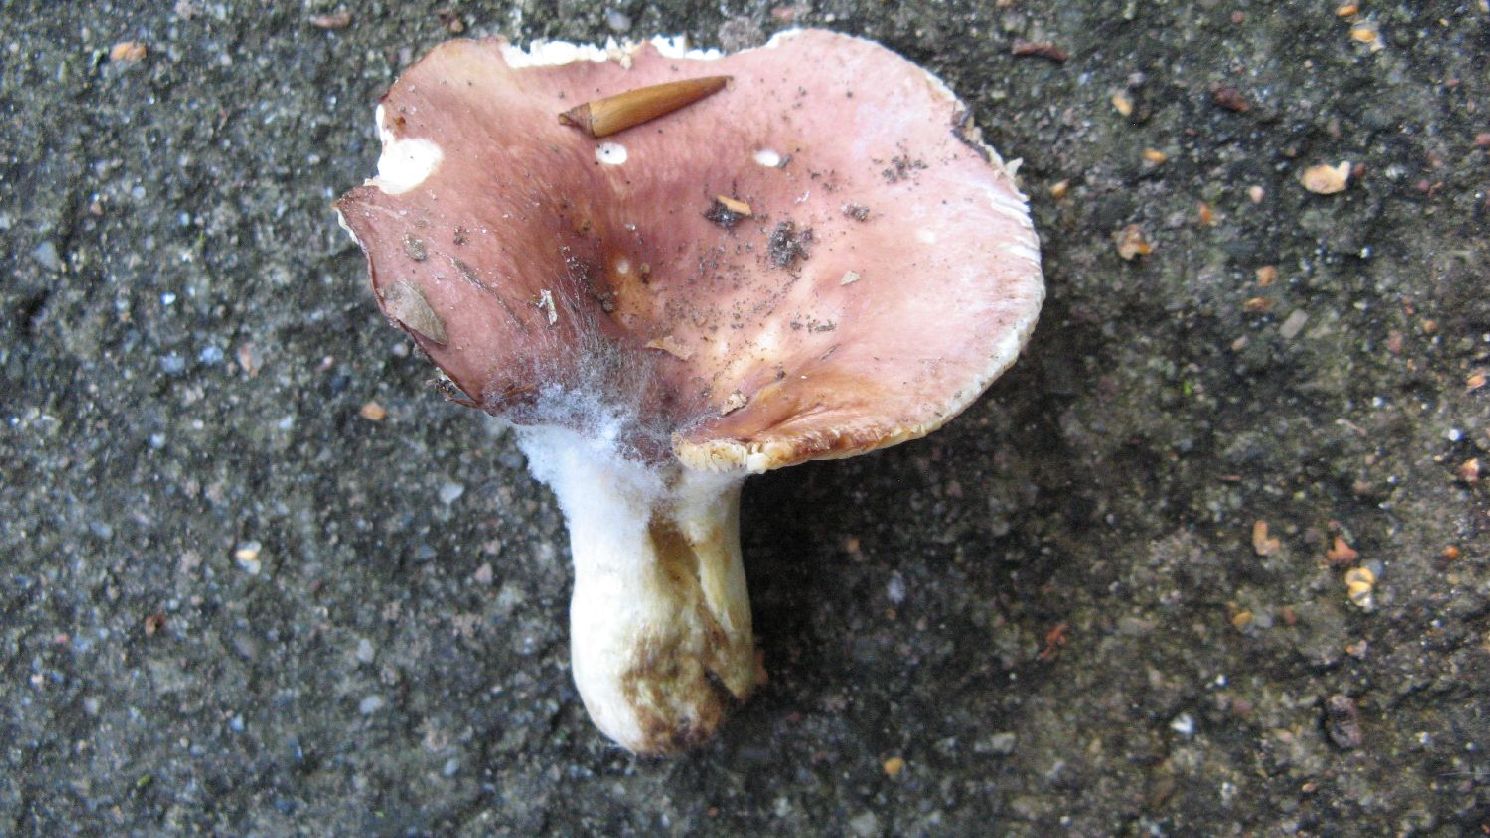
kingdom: Fungi
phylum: Basidiomycota
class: Agaricomycetes
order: Russulales
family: Russulaceae
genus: Russula
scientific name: Russula vesca
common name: spiselig skørhat
